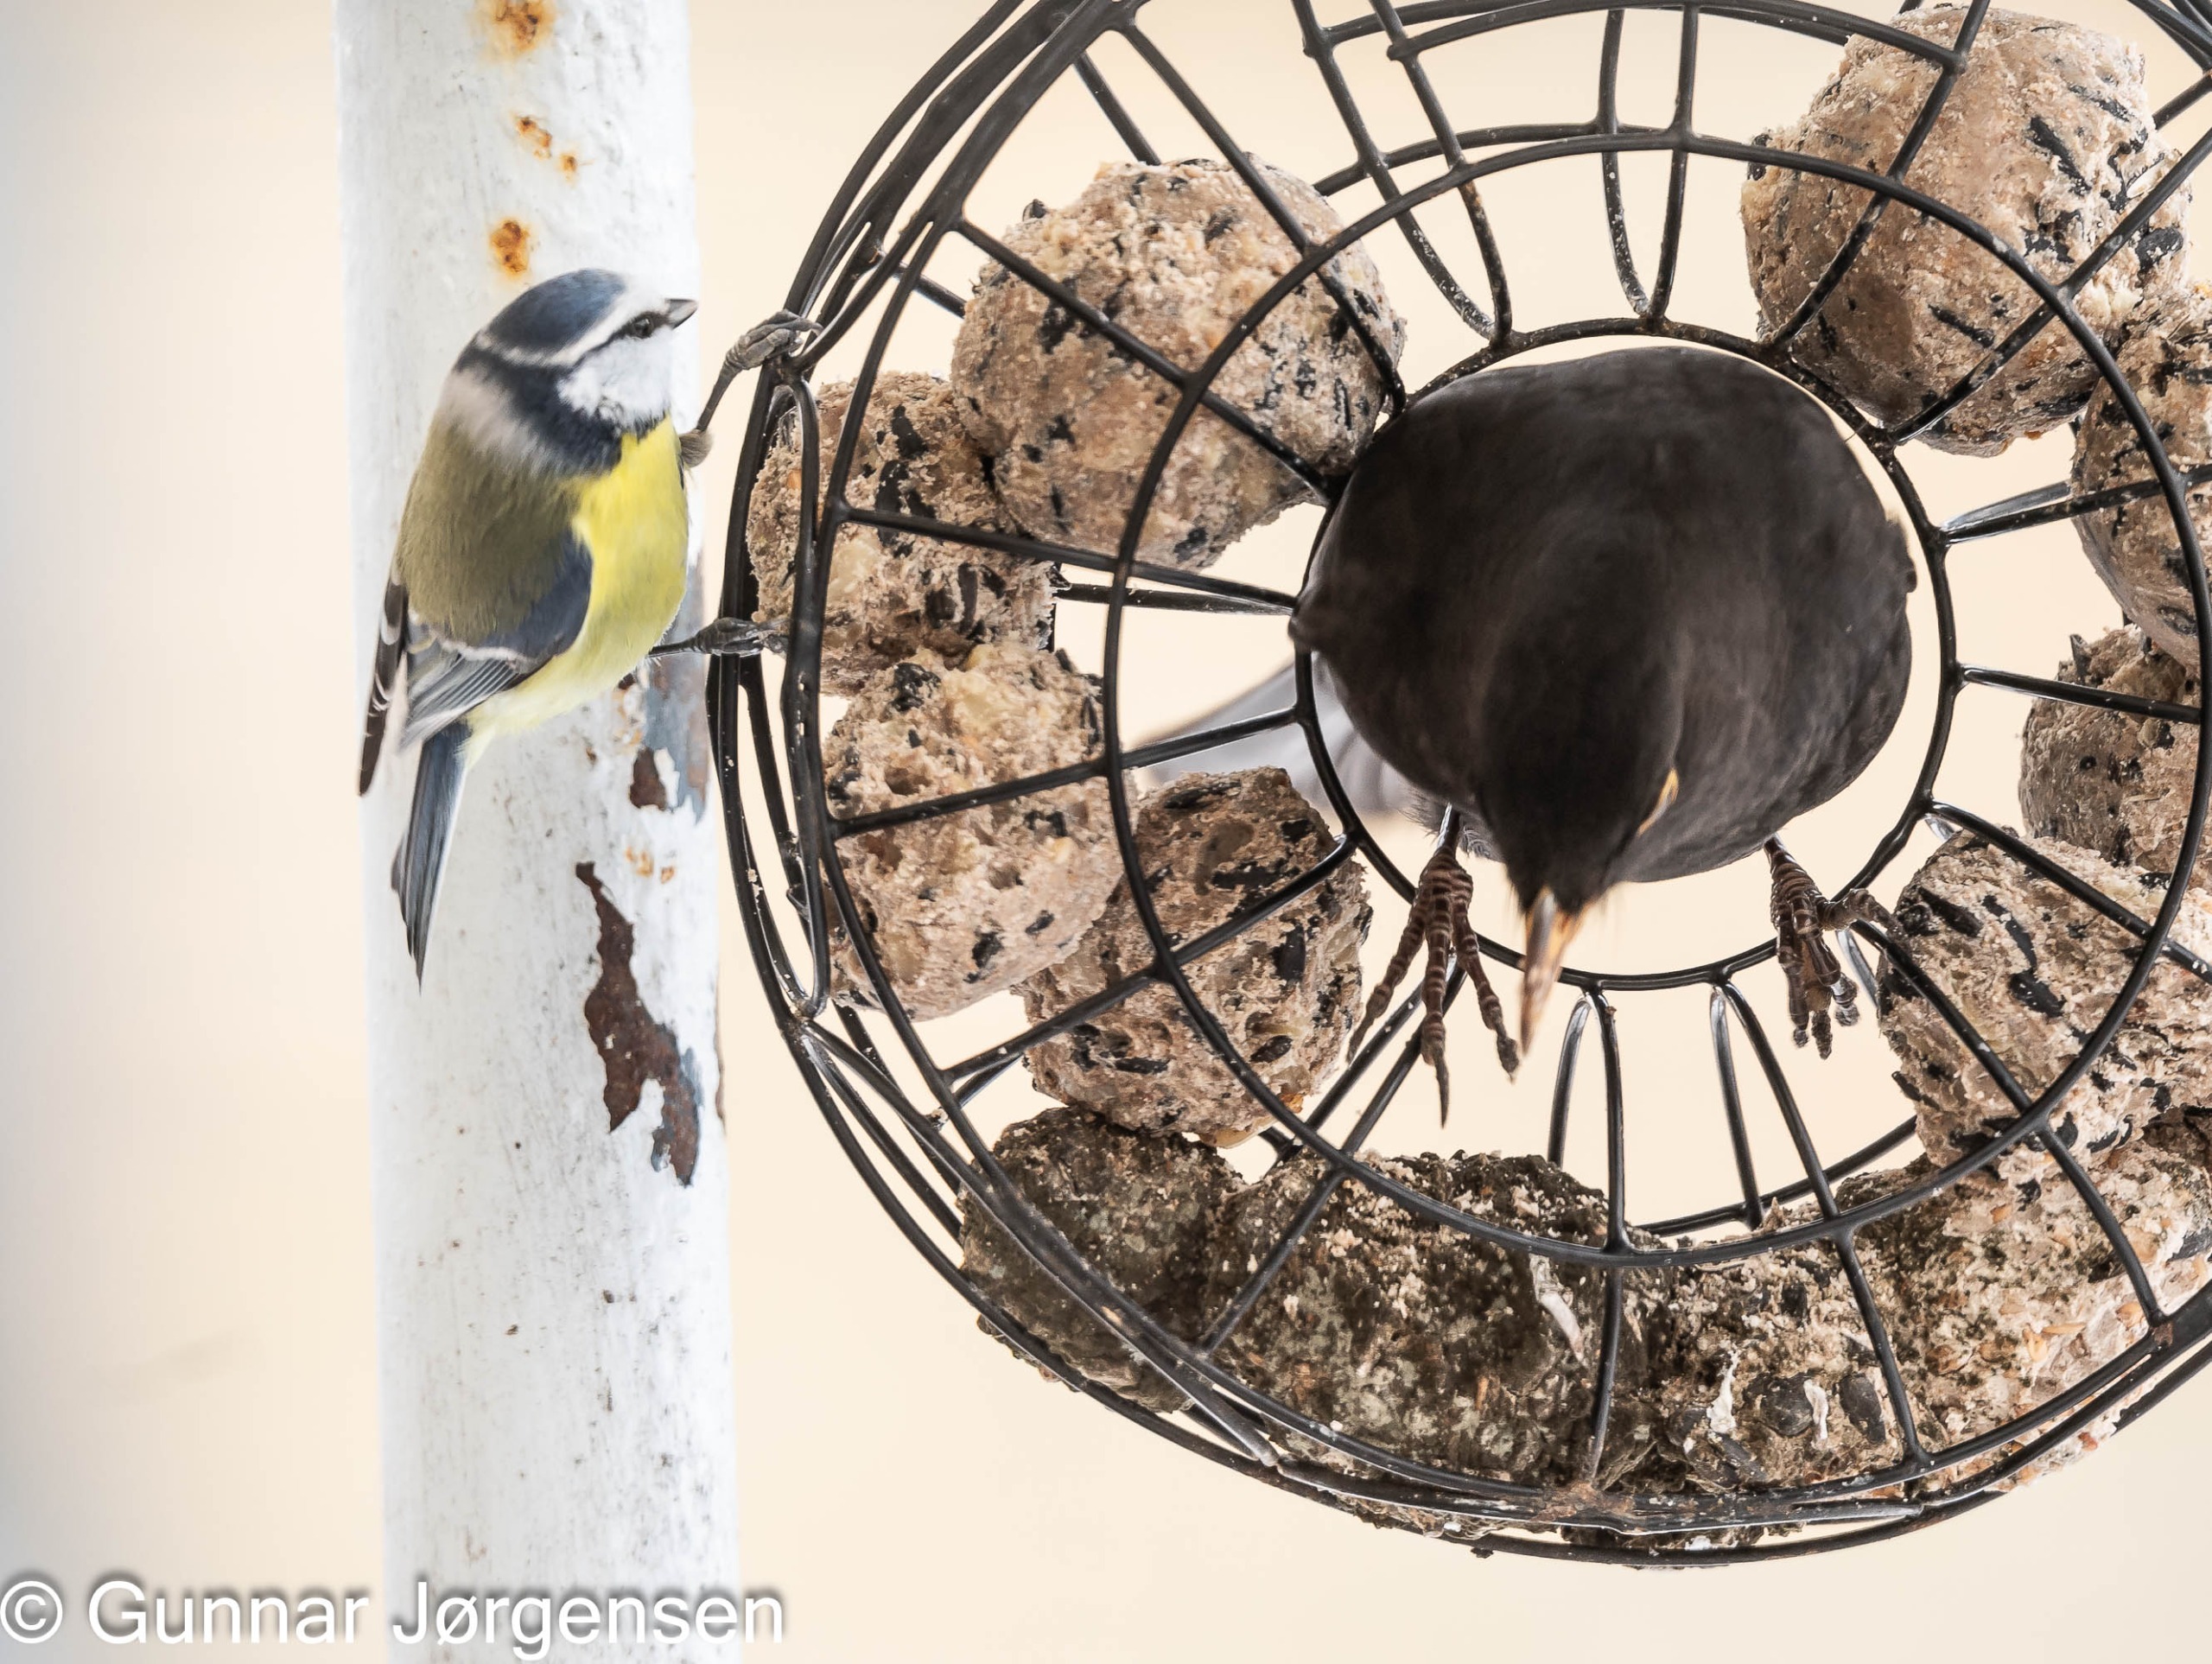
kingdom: Animalia
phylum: Chordata
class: Aves
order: Passeriformes
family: Paridae
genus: Cyanistes
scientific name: Cyanistes caeruleus
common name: Blåmejse
